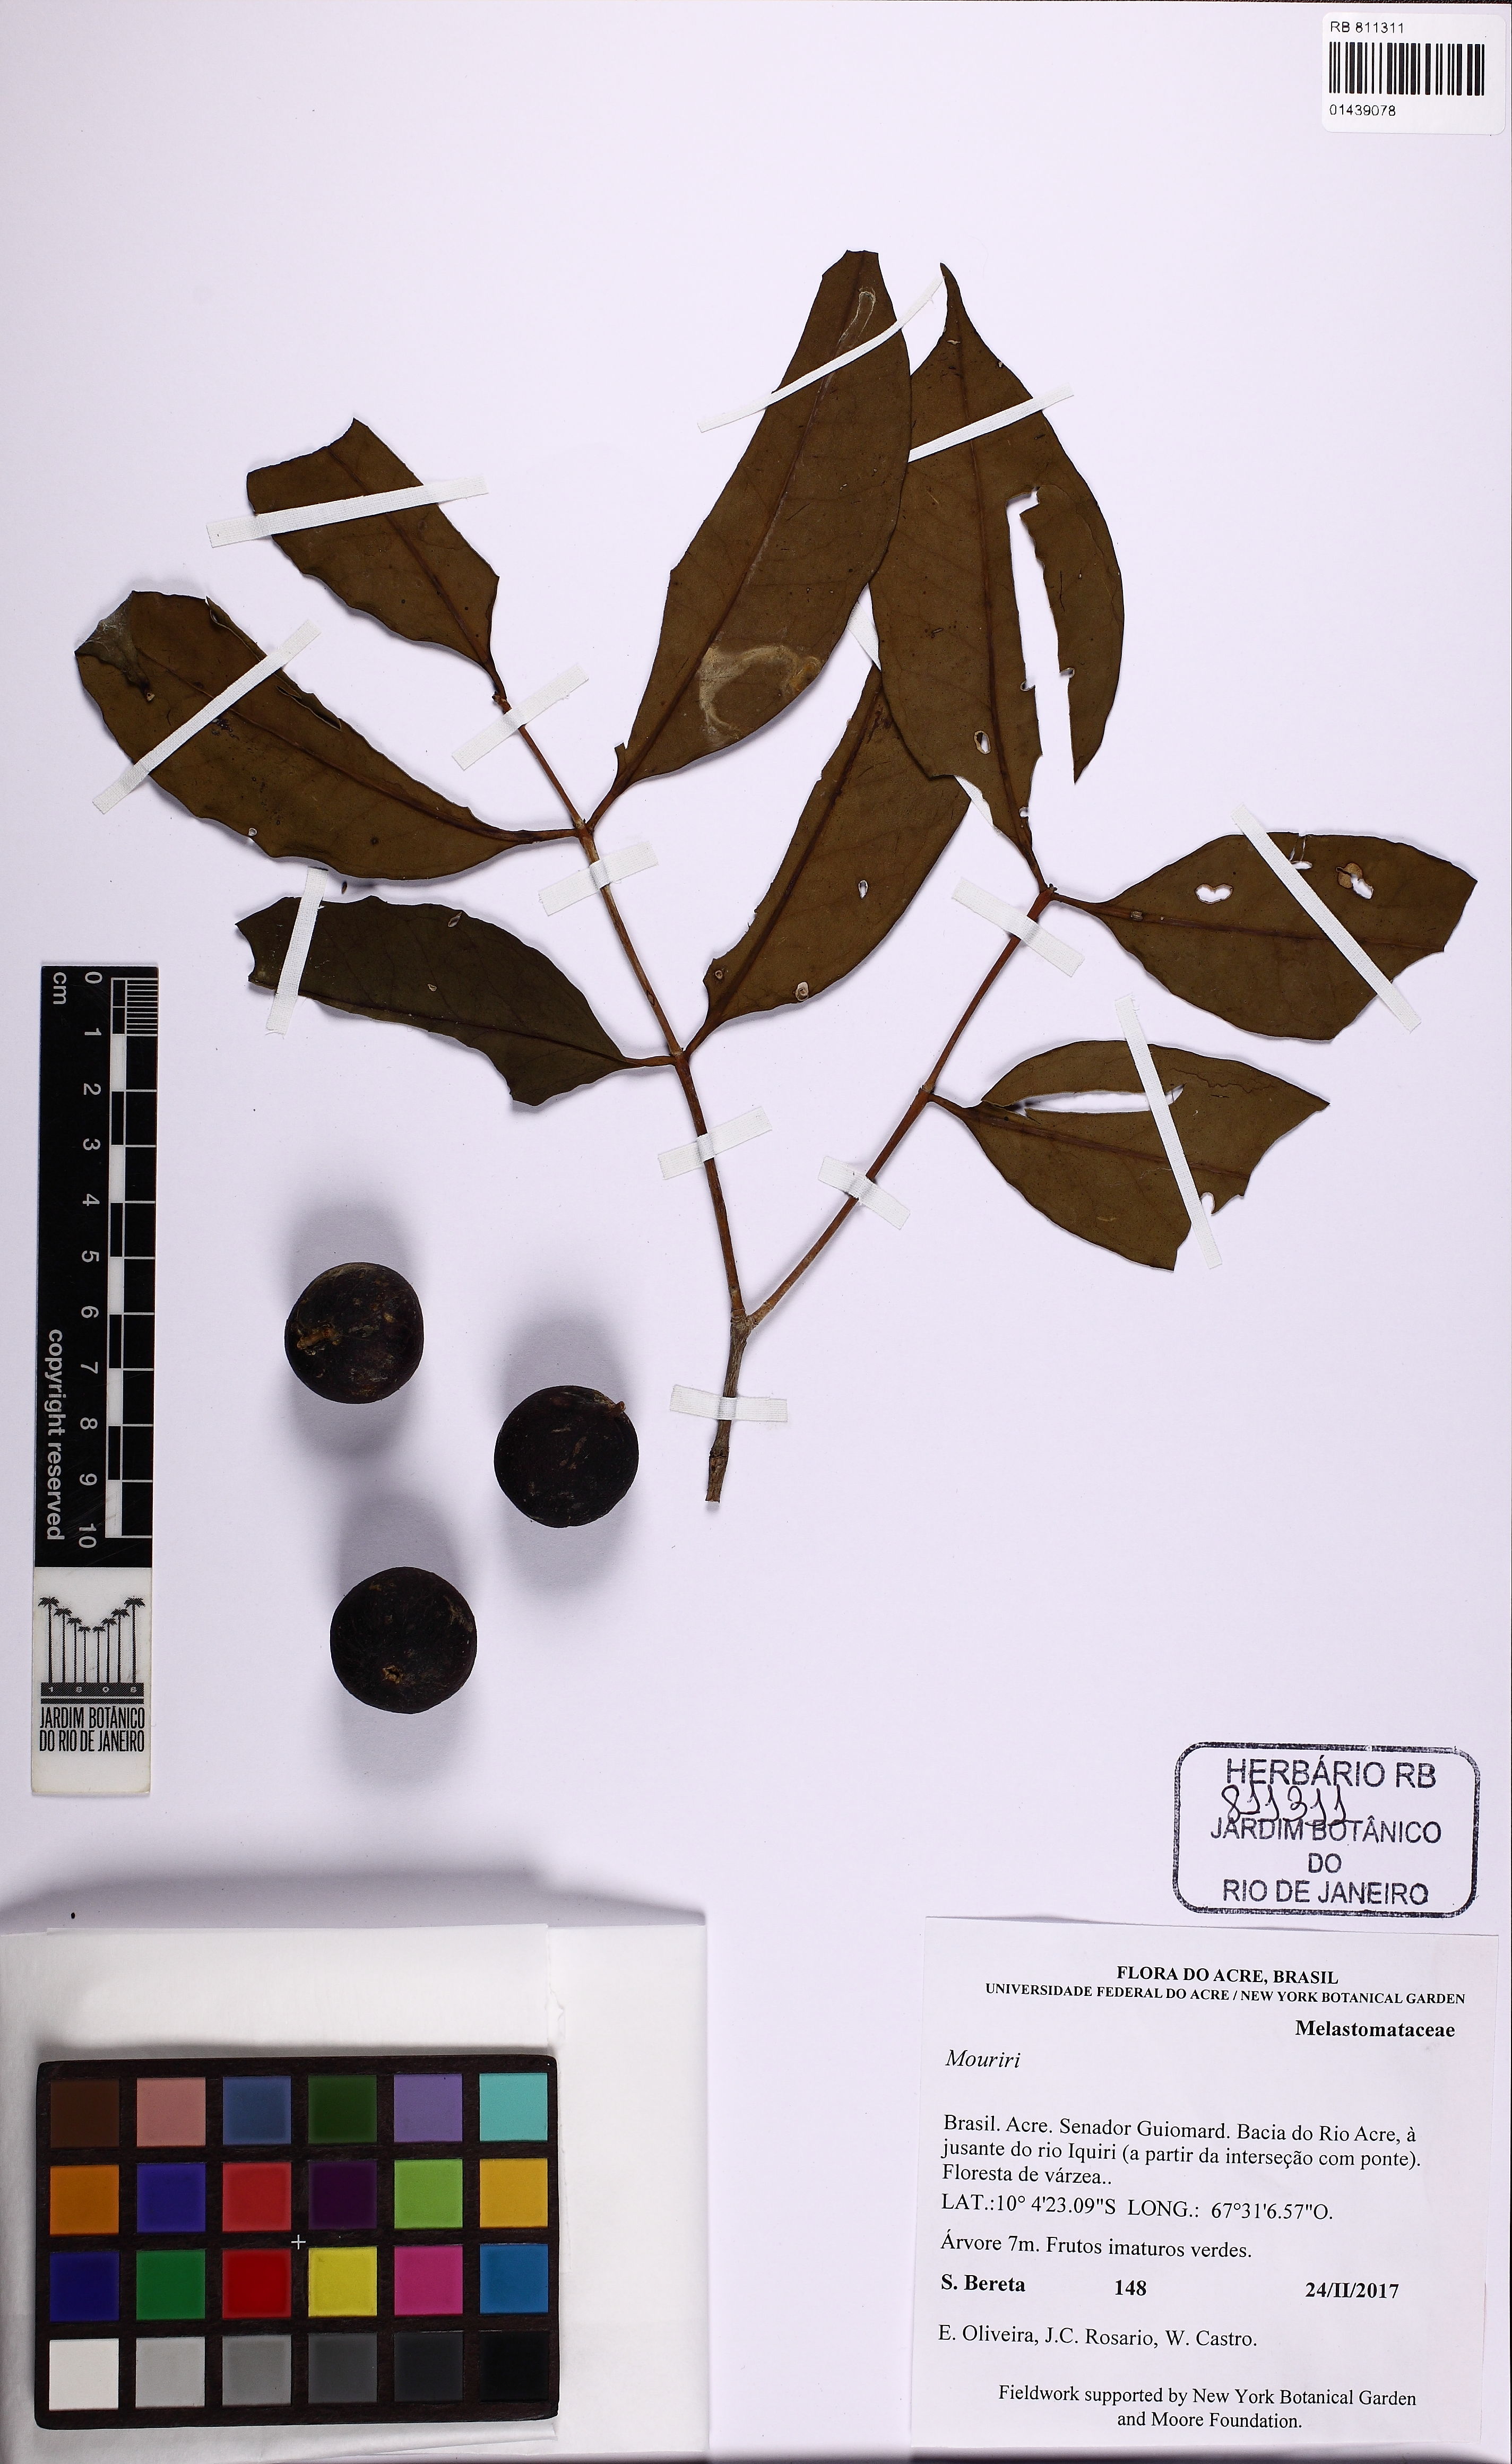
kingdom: Plantae
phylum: Tracheophyta
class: Magnoliopsida
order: Myrtales
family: Melastomataceae
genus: Mouriri
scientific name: Mouriri acutiflora
